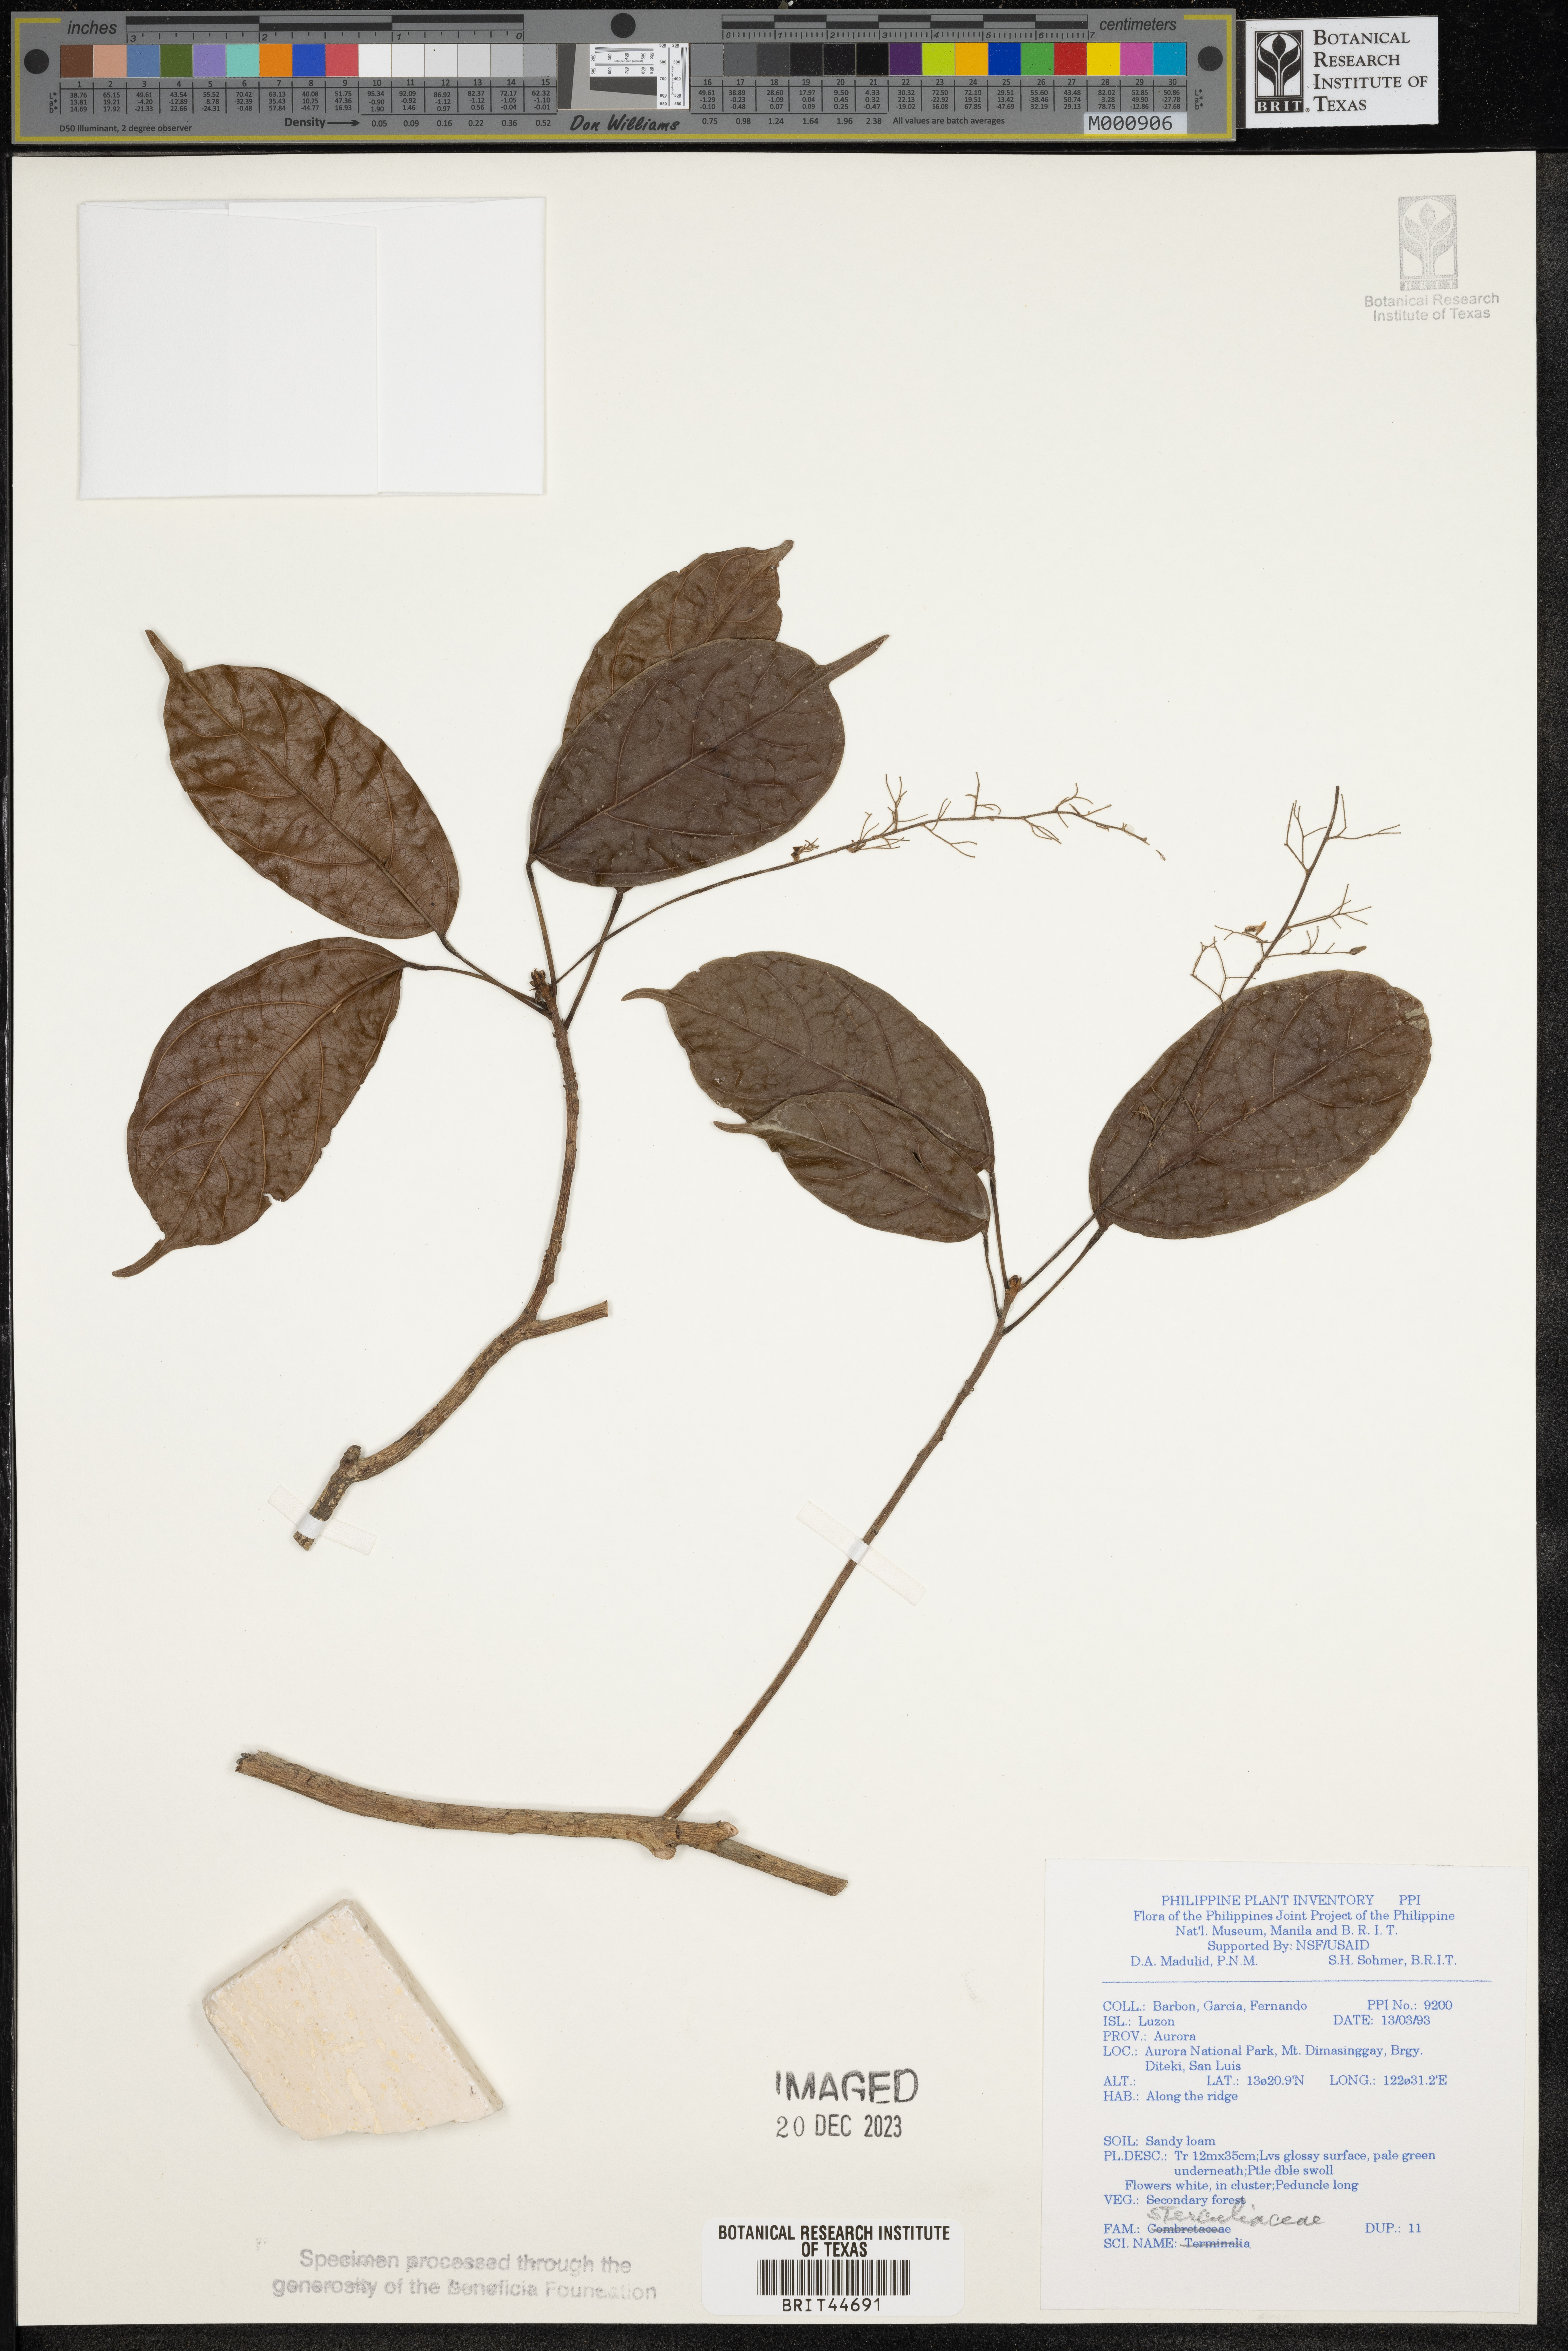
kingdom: Plantae
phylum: Tracheophyta
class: Magnoliopsida
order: Malvales
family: Sterculiaceae
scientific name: Sterculiaceae
